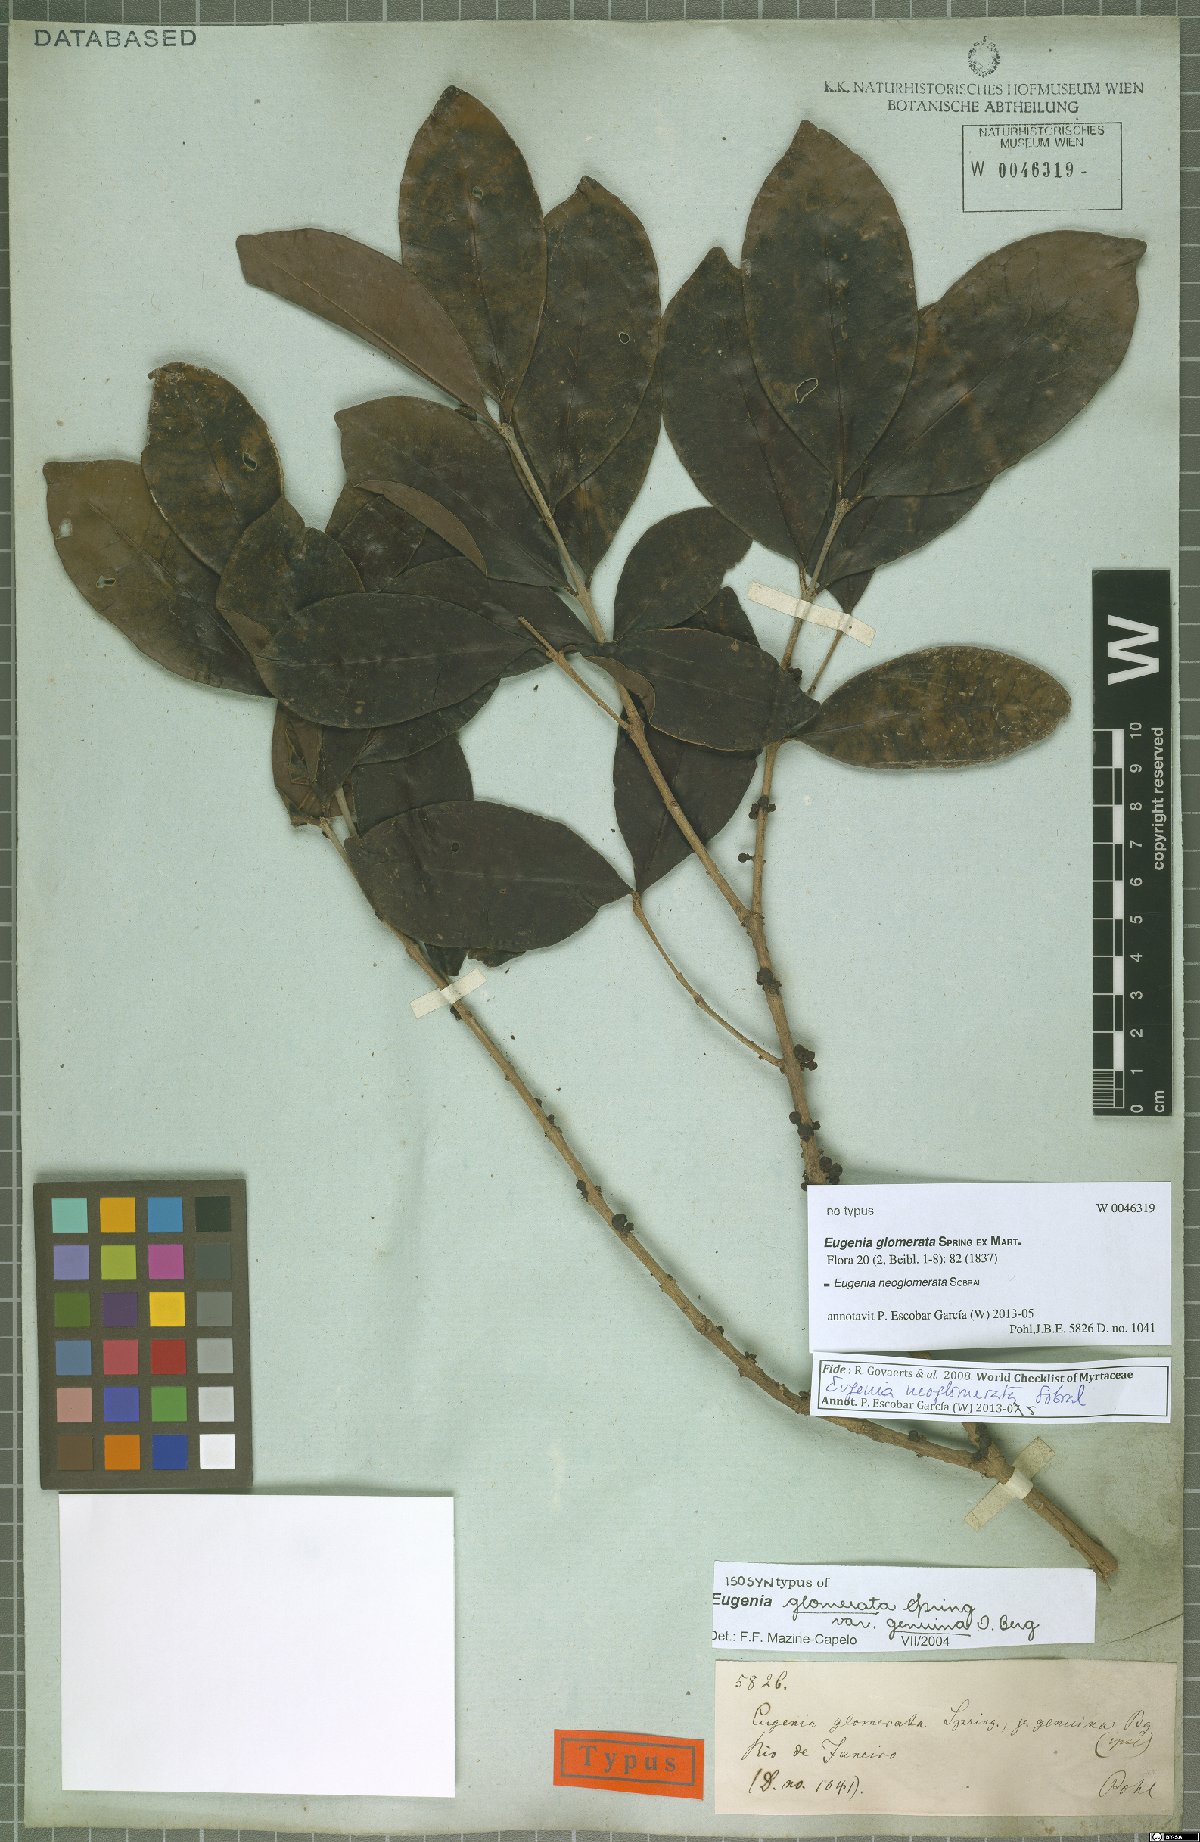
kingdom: Plantae
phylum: Tracheophyta
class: Magnoliopsida
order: Myrtales
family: Myrtaceae
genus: Eugenia
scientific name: Eugenia neoglomerata
